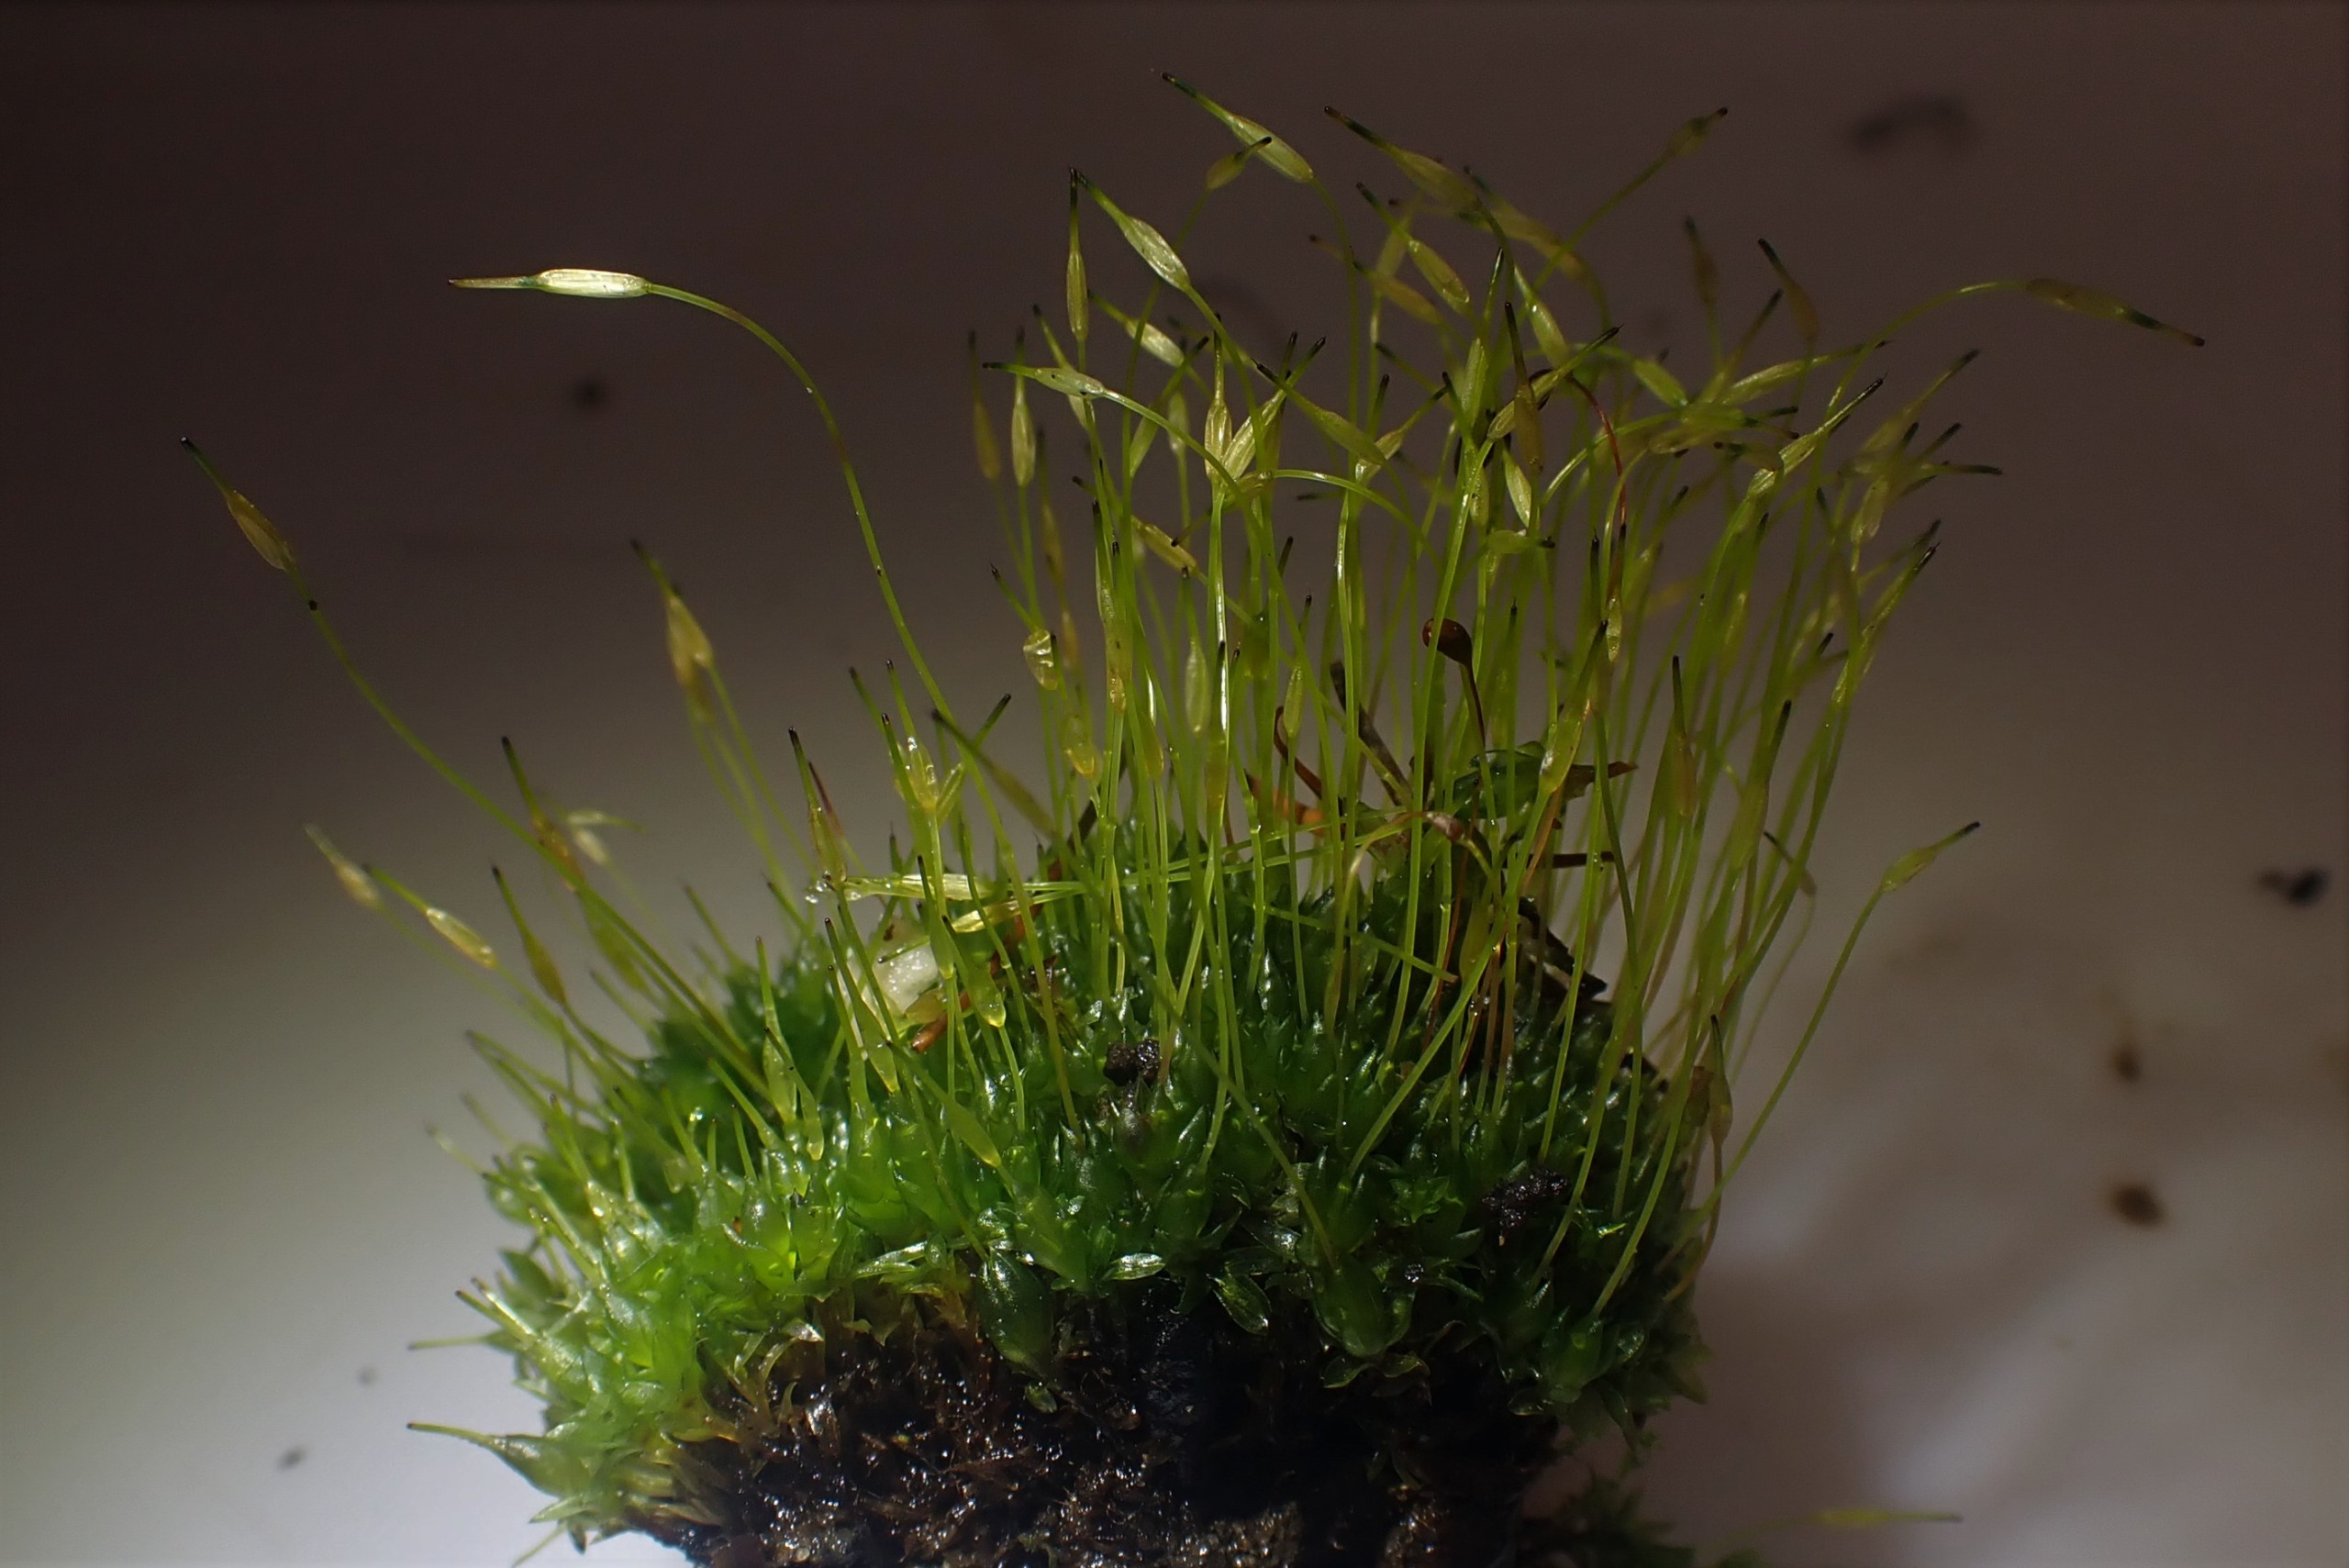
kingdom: Plantae
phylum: Bryophyta
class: Bryopsida
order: Funariales
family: Funariaceae
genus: Funaria
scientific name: Funaria hygrometrica
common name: Almindelig snobørste
